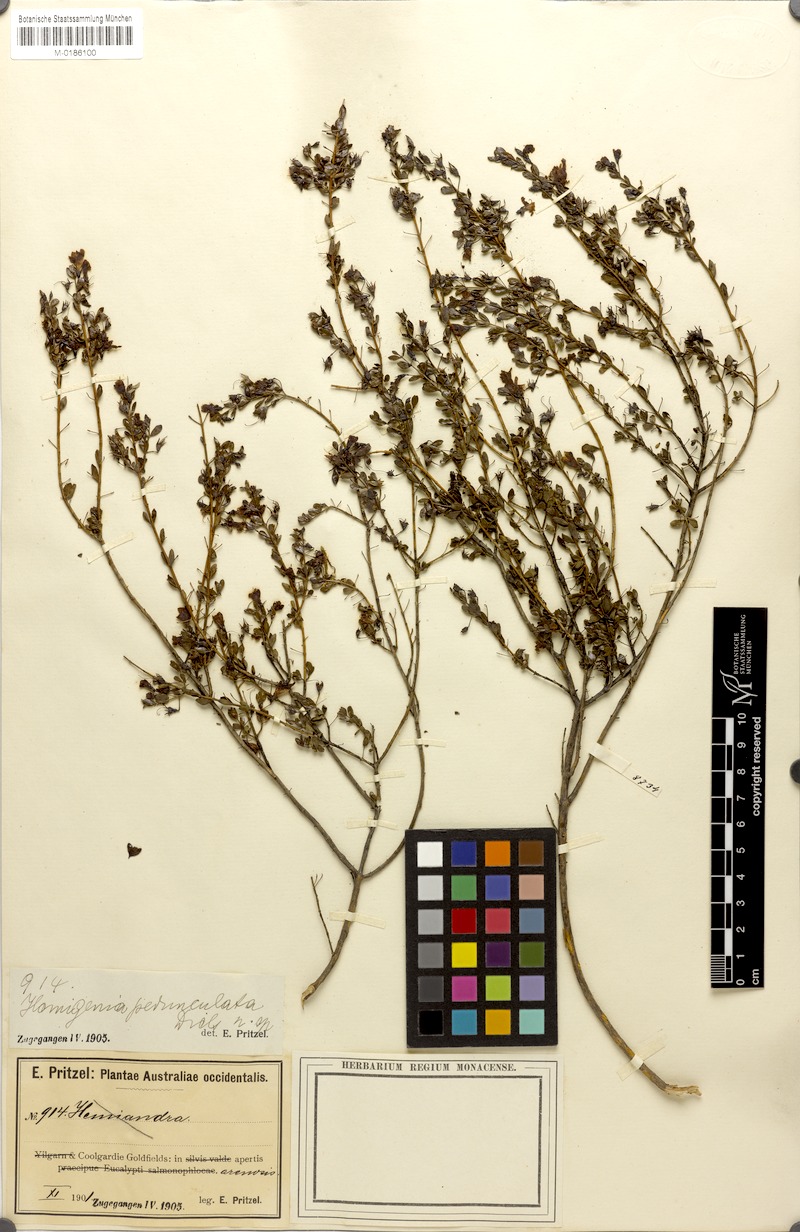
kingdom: Plantae
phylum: Tracheophyta
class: Magnoliopsida
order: Lamiales
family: Lamiaceae
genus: Hemigenia
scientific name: Hemigenia pedunculata
